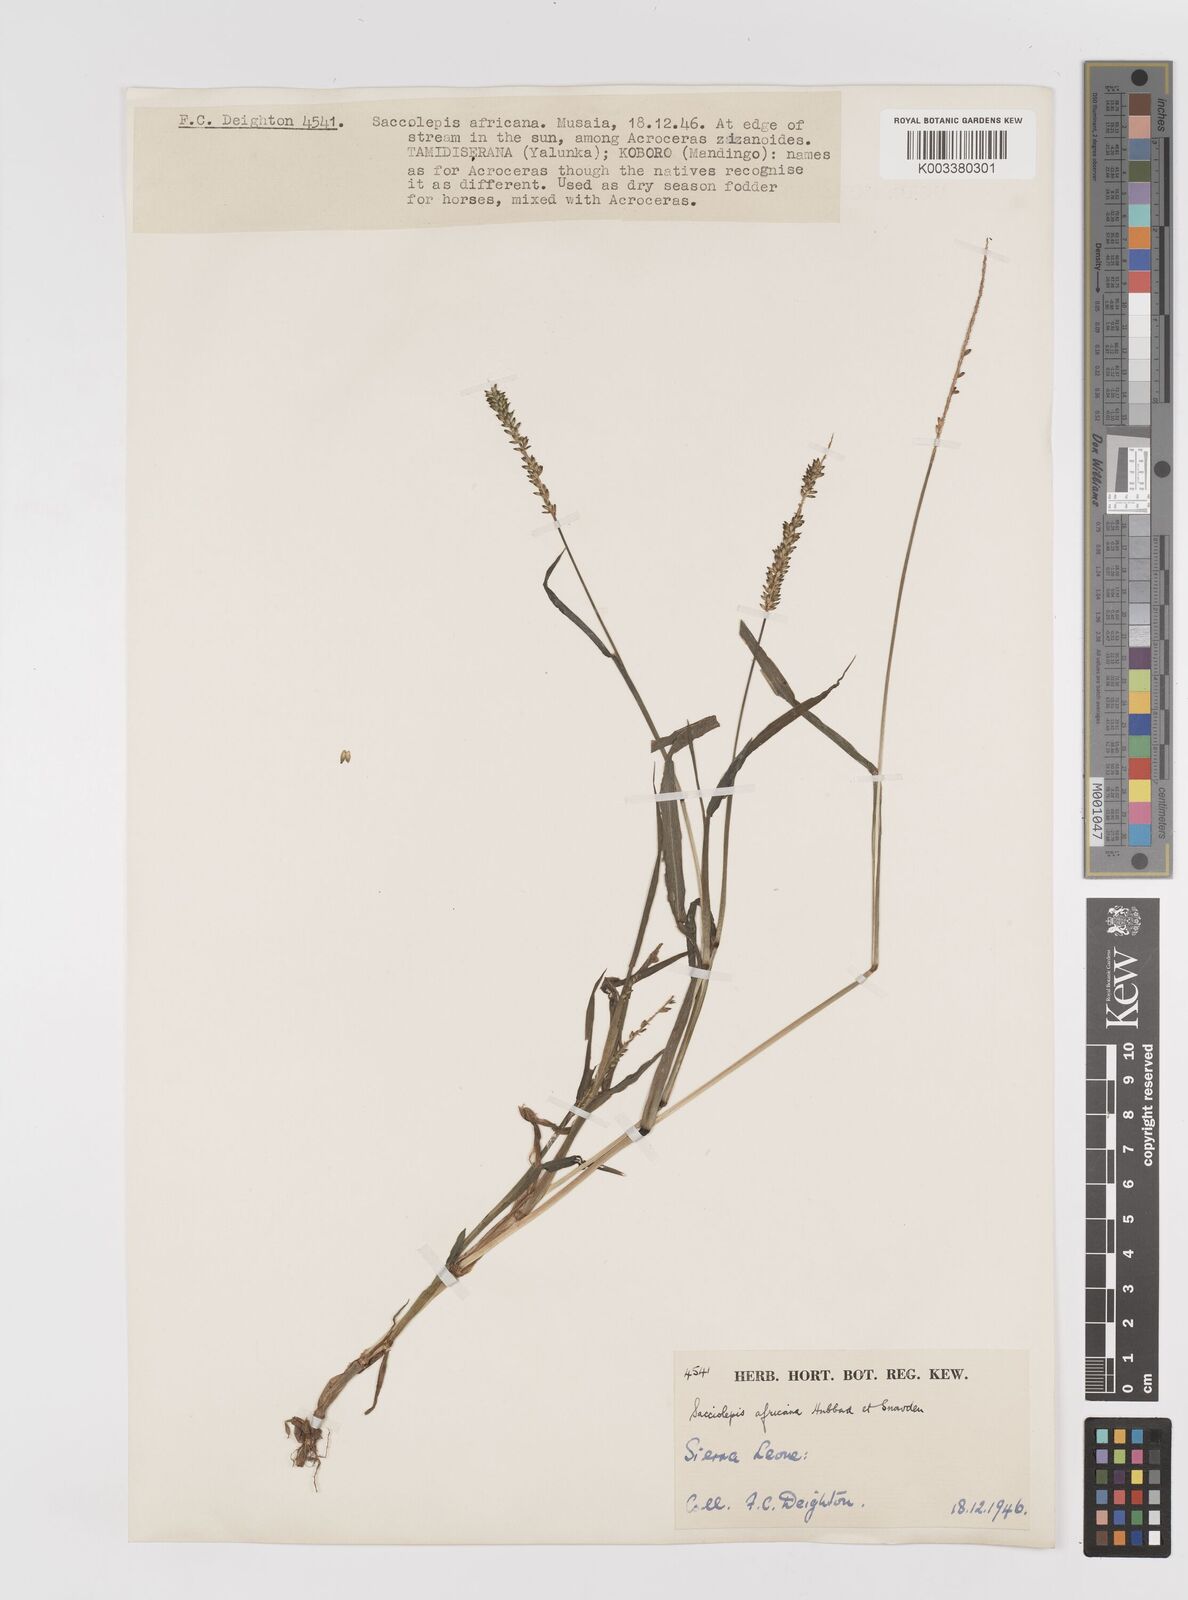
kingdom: Plantae
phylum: Tracheophyta
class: Liliopsida
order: Poales
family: Poaceae
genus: Sacciolepis
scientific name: Sacciolepis africana
